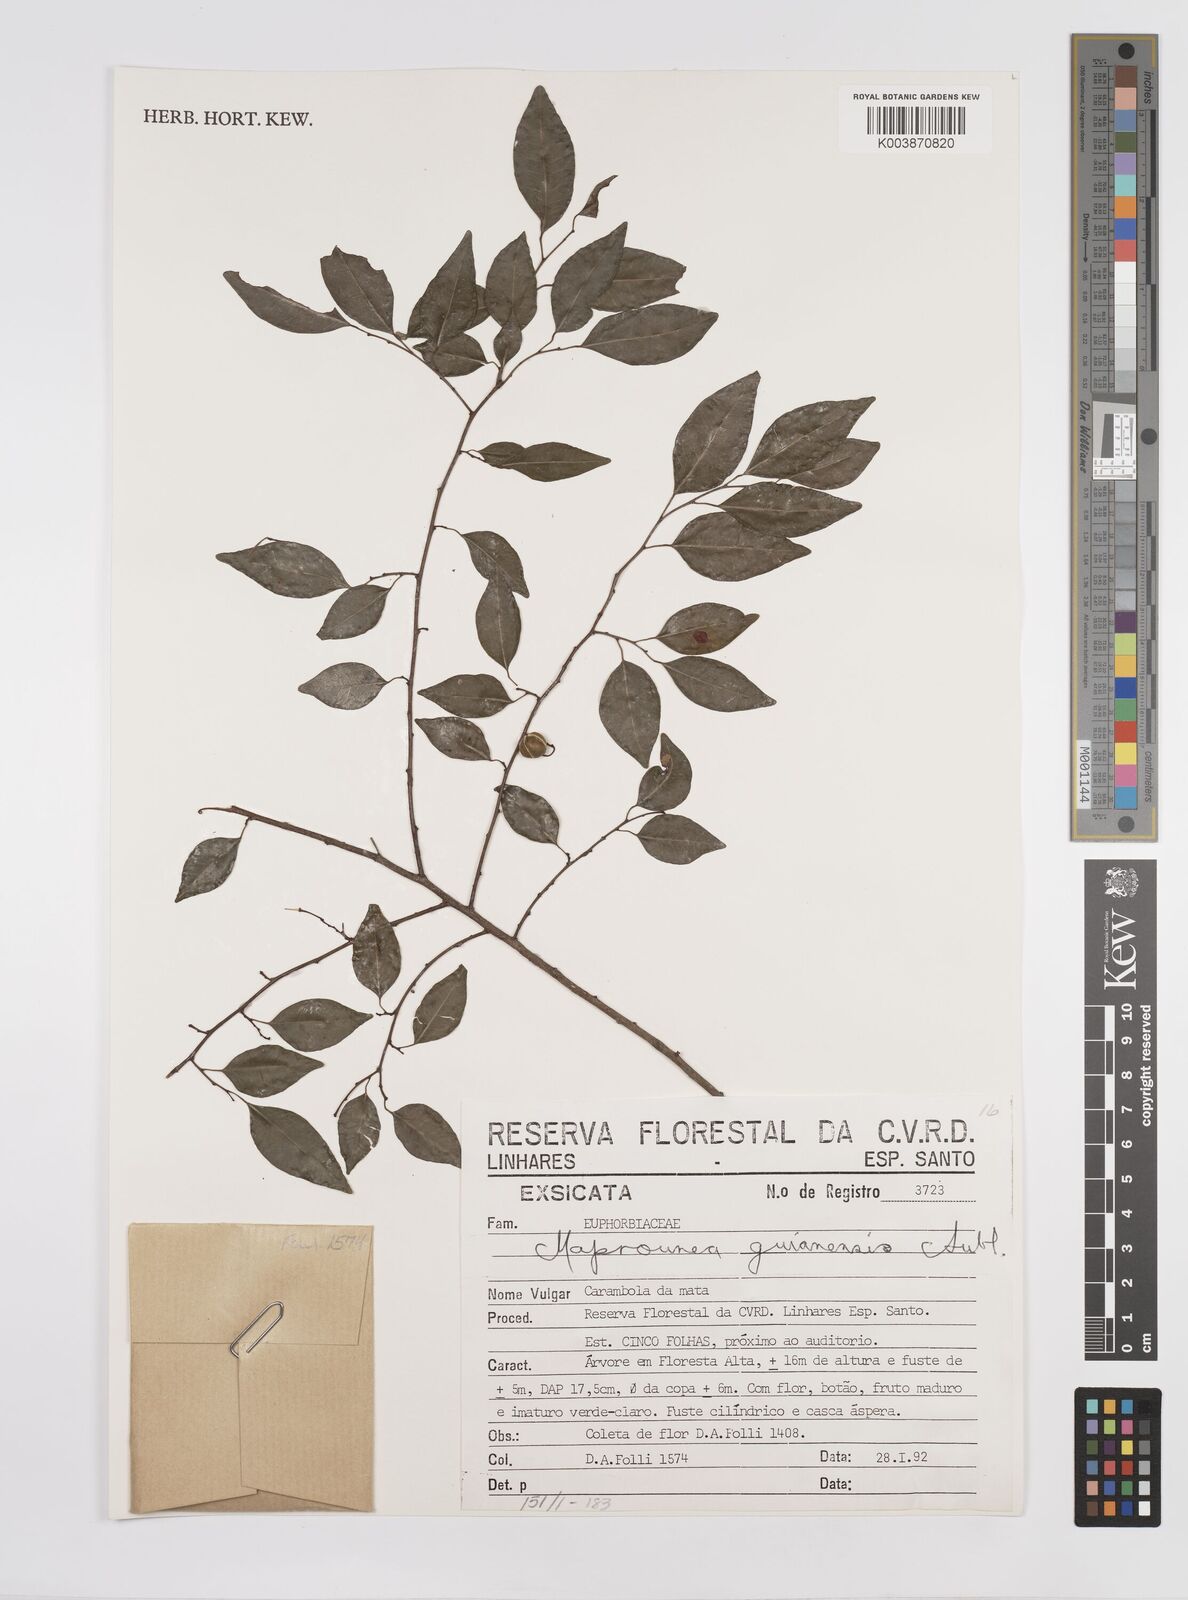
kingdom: Plantae
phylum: Tracheophyta
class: Magnoliopsida
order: Malpighiales
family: Euphorbiaceae
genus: Maprounea
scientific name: Maprounea guianensis
